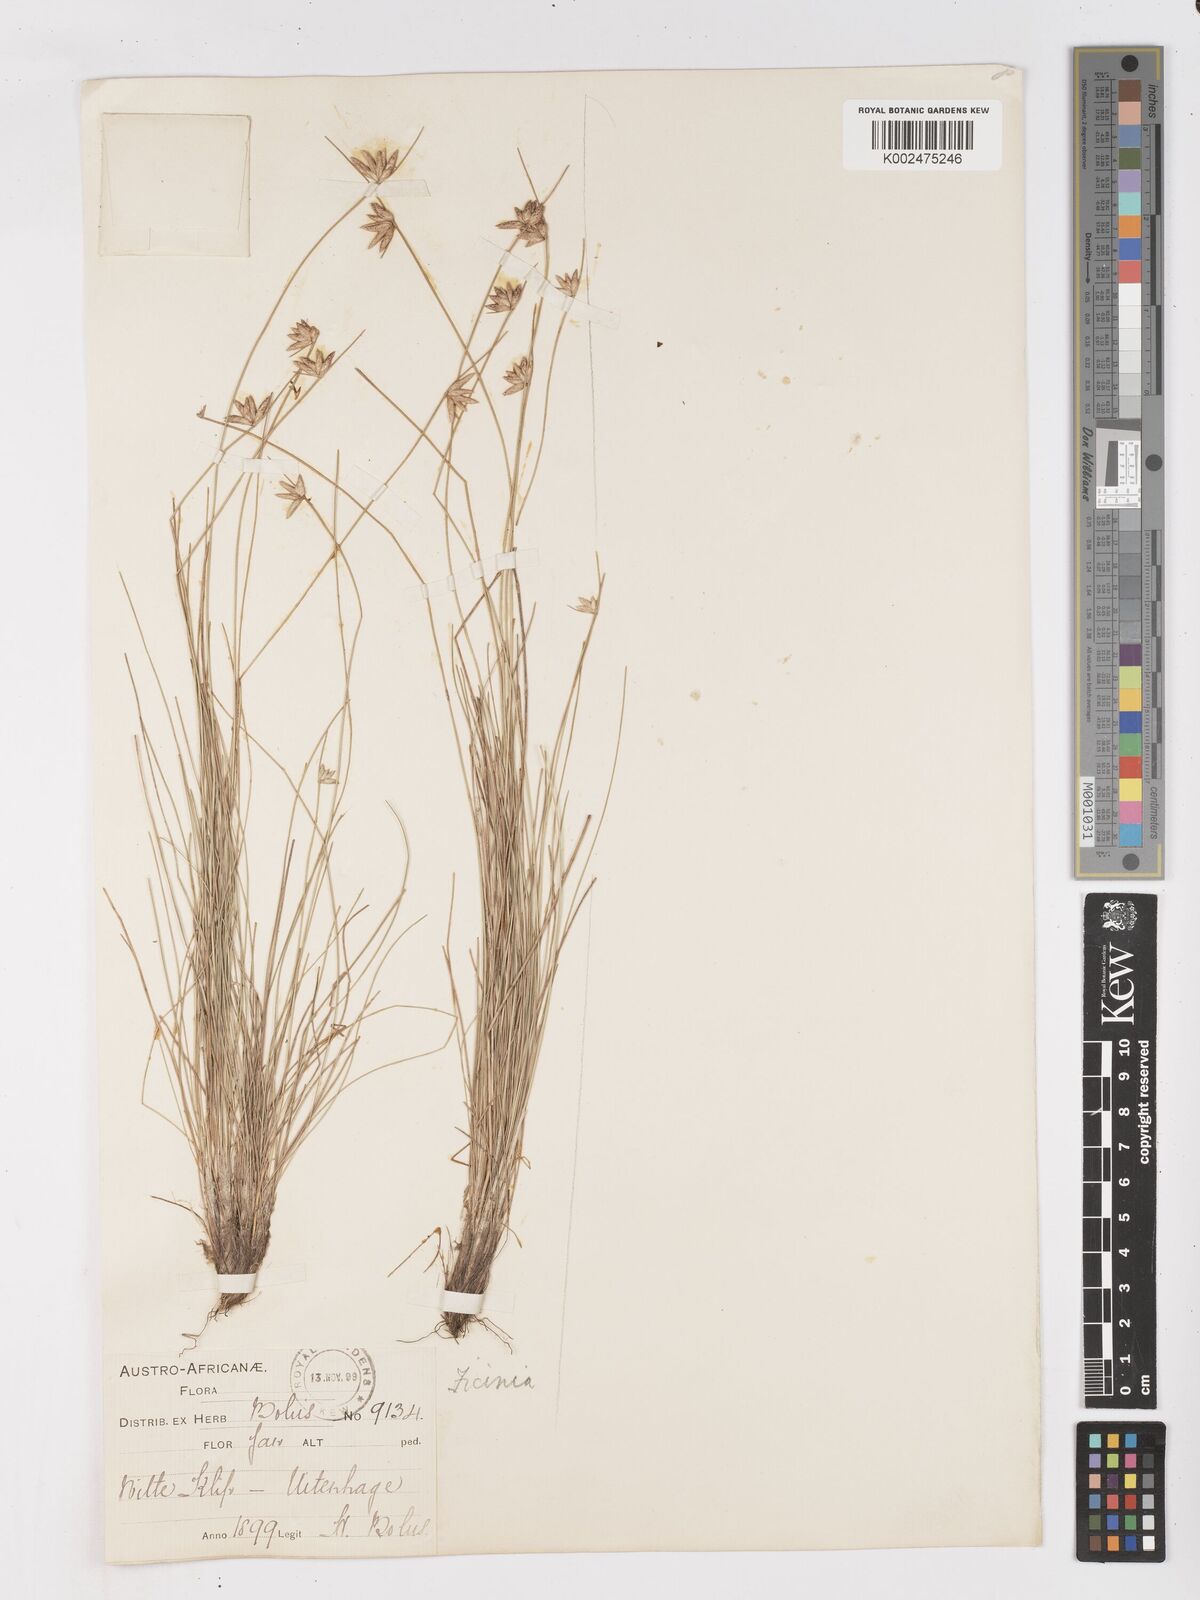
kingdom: Plantae
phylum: Tracheophyta
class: Liliopsida
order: Poales
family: Cyperaceae
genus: Ficinia
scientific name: Ficinia albicans
